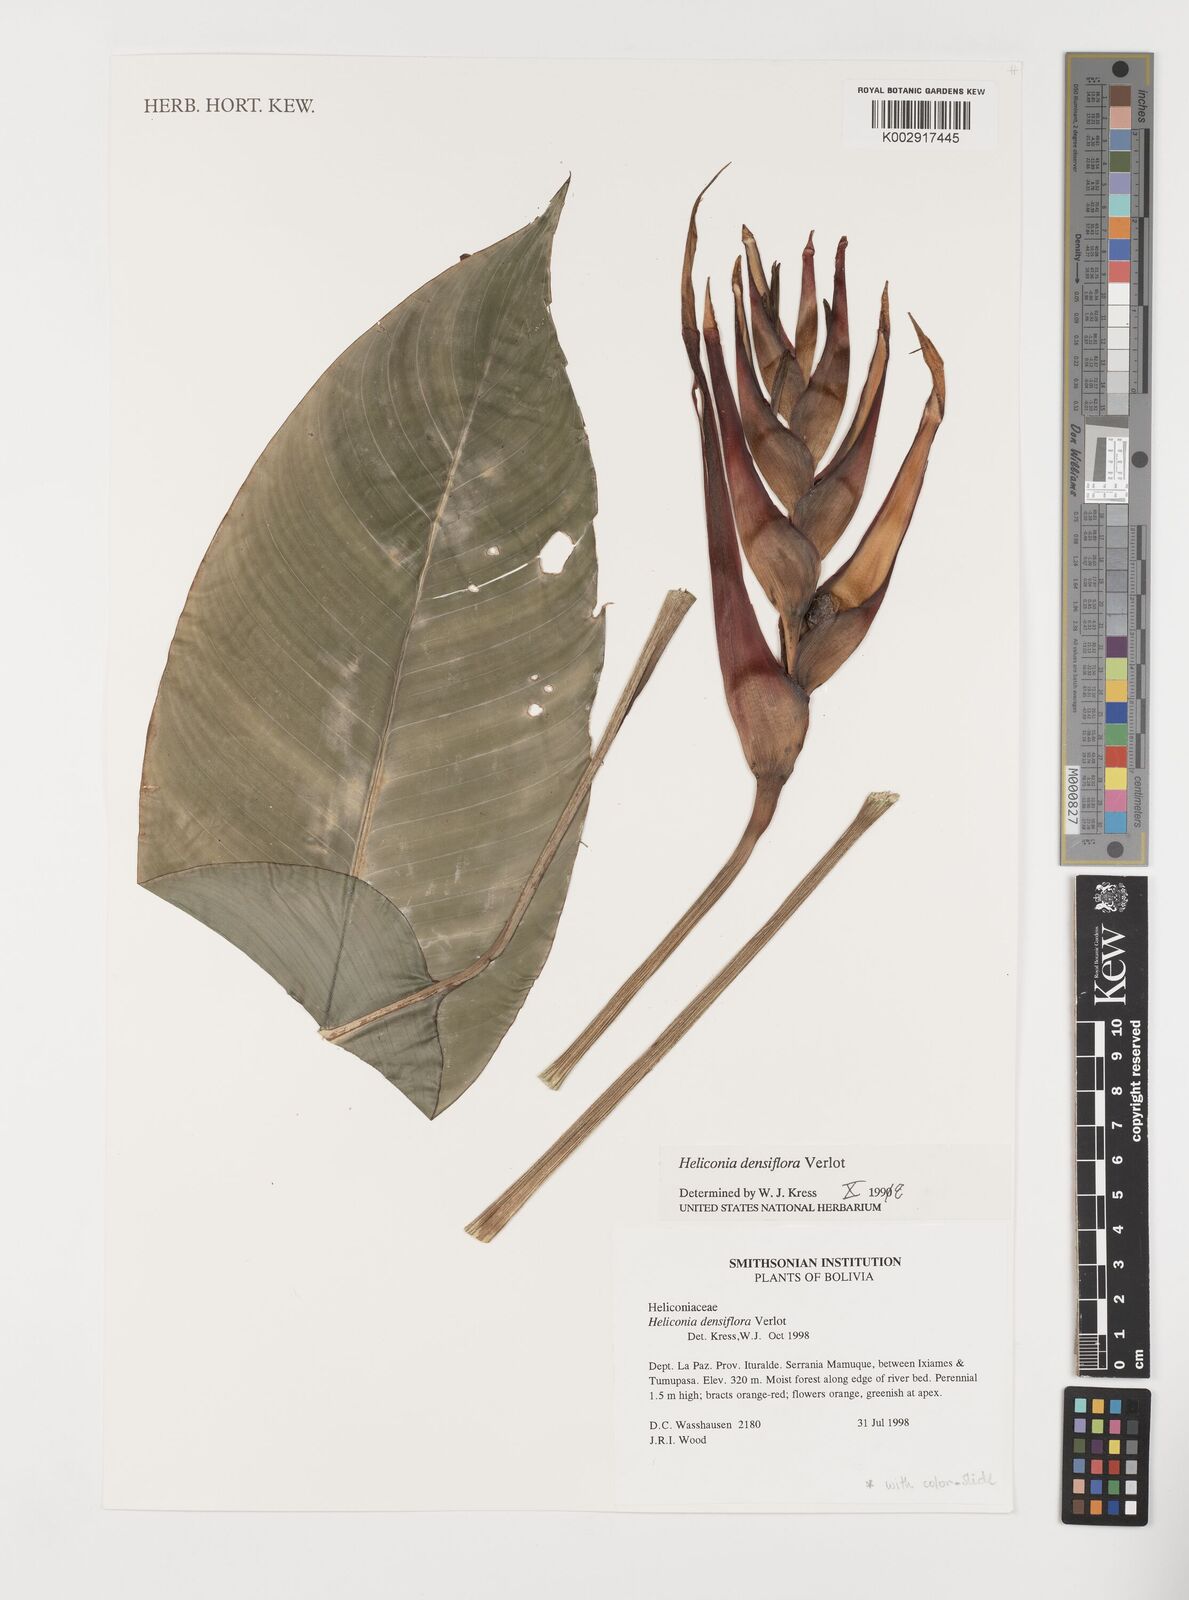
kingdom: Plantae
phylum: Tracheophyta
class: Liliopsida
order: Zingiberales
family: Heliconiaceae
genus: Heliconia
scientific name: Heliconia densiflora
